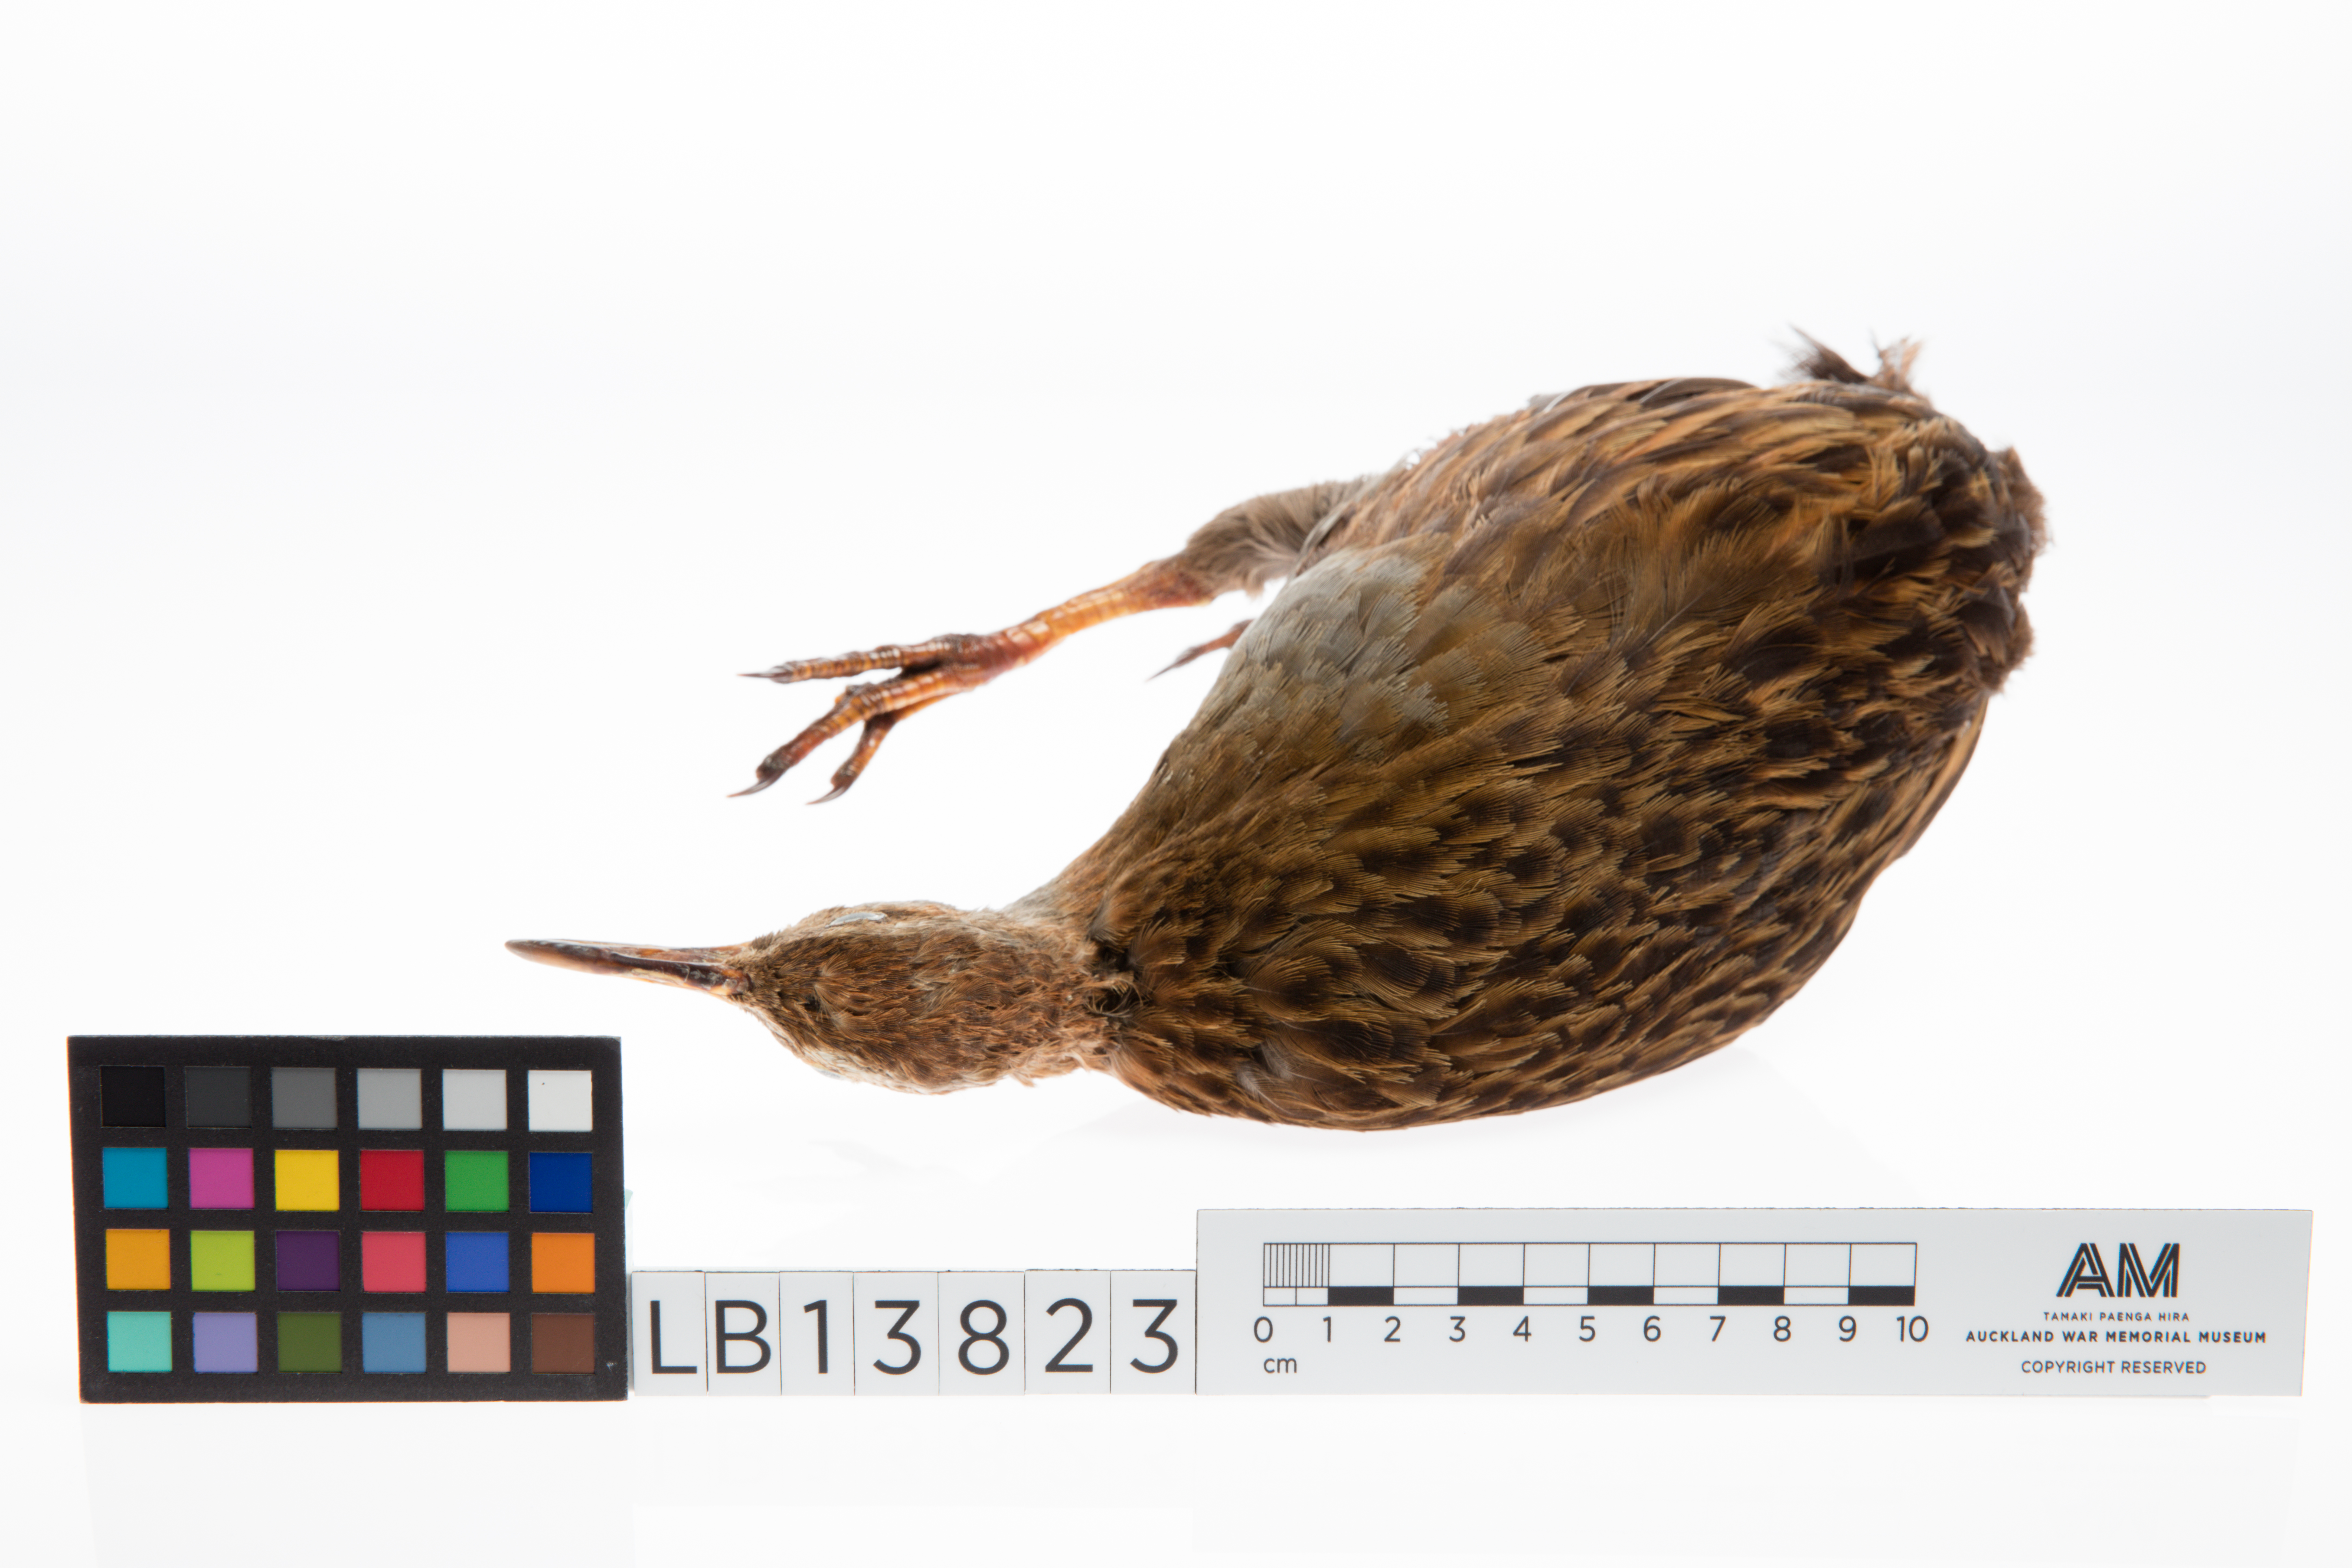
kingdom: Animalia
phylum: Chordata
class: Aves
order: Gruiformes
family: Rallidae
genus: Gallirallus
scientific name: Gallirallus australis
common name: Weka
